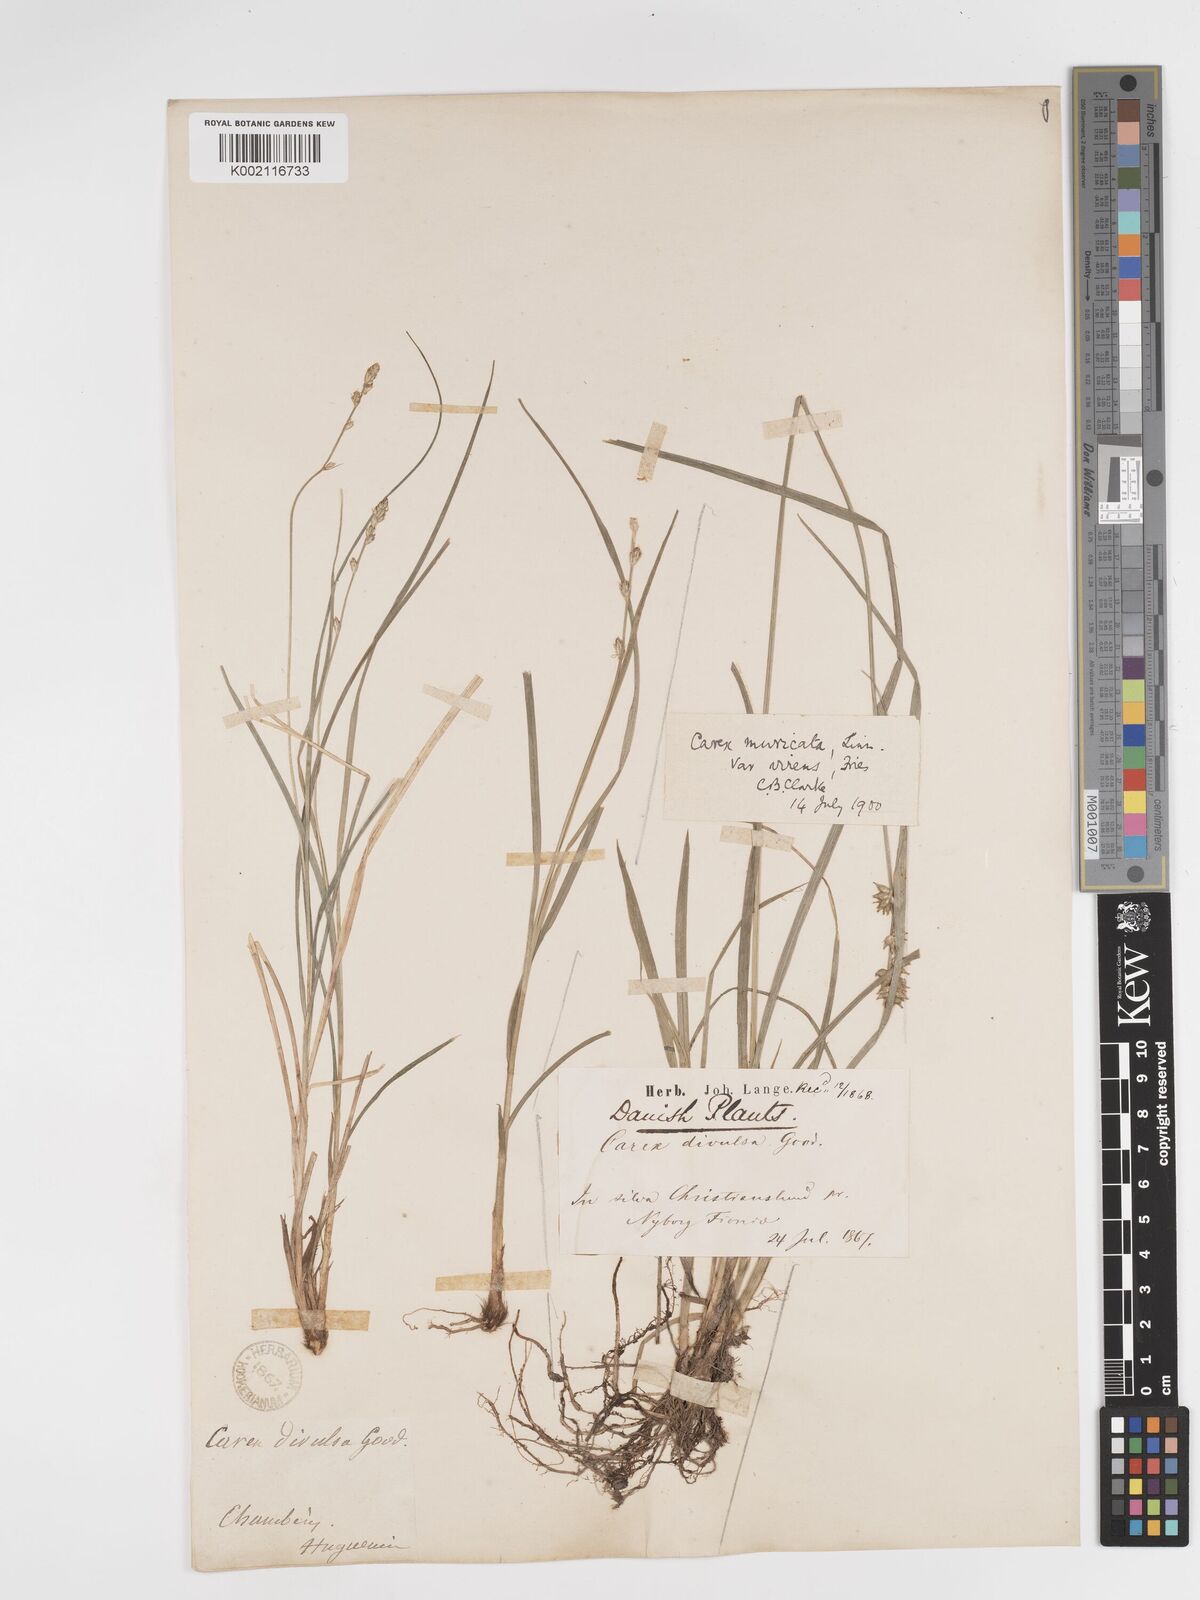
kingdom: Plantae
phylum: Tracheophyta
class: Liliopsida
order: Poales
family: Cyperaceae
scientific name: Cyperaceae
